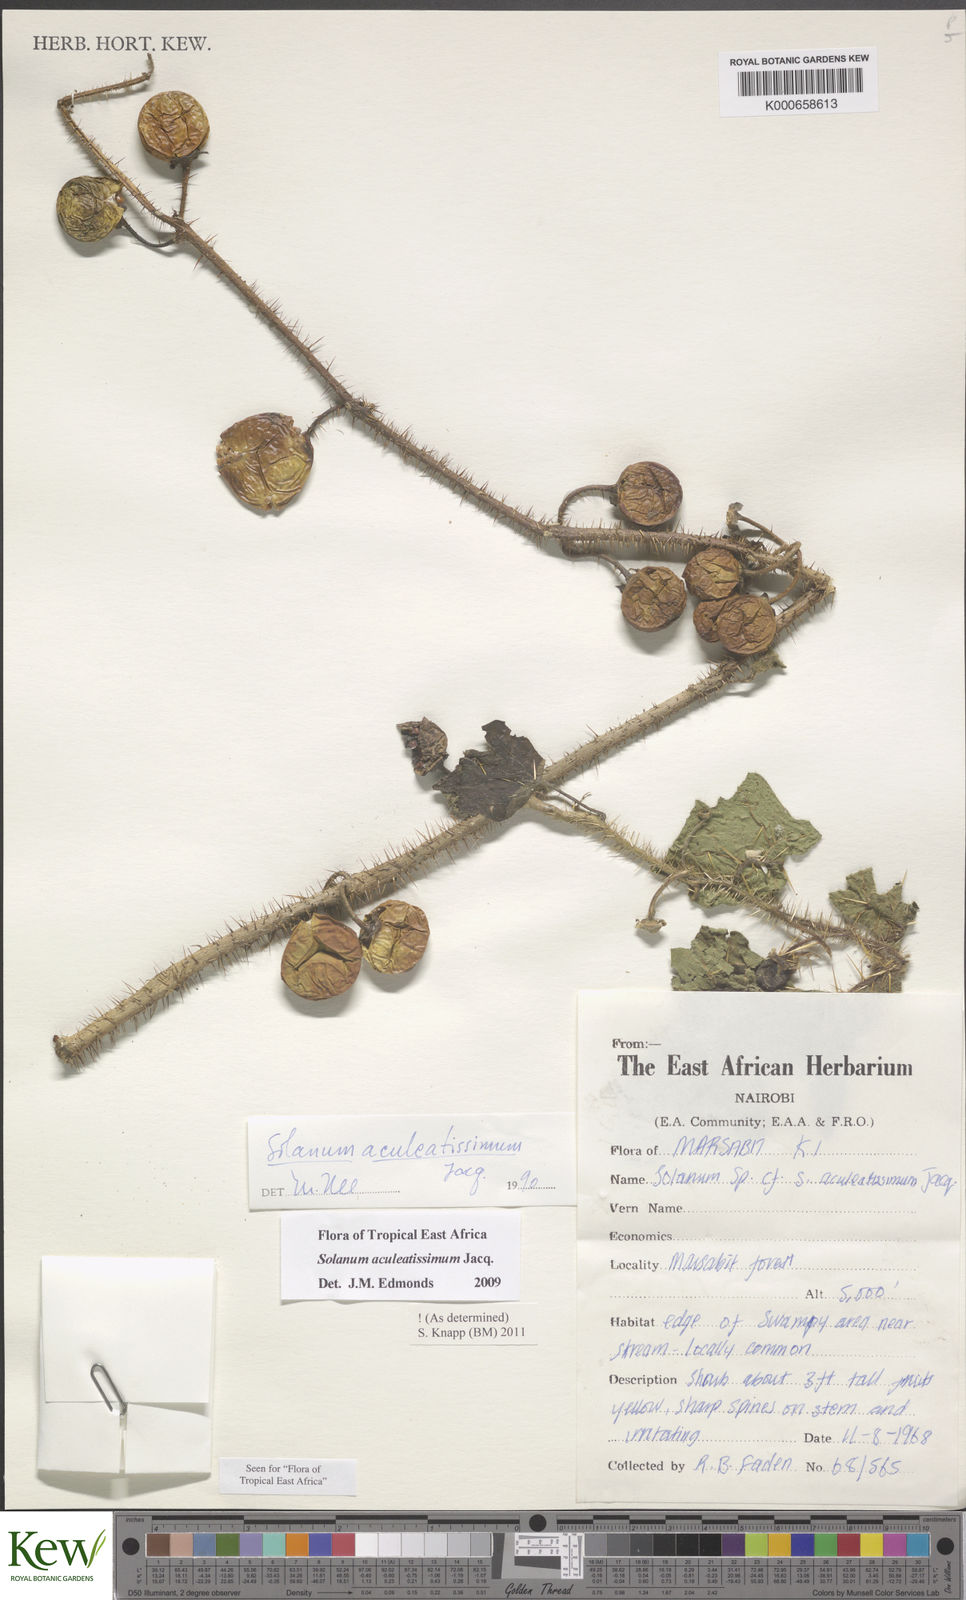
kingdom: Plantae
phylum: Tracheophyta
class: Magnoliopsida
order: Solanales
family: Solanaceae
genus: Solanum
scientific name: Solanum aculeatissimum
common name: Dutch eggplant
